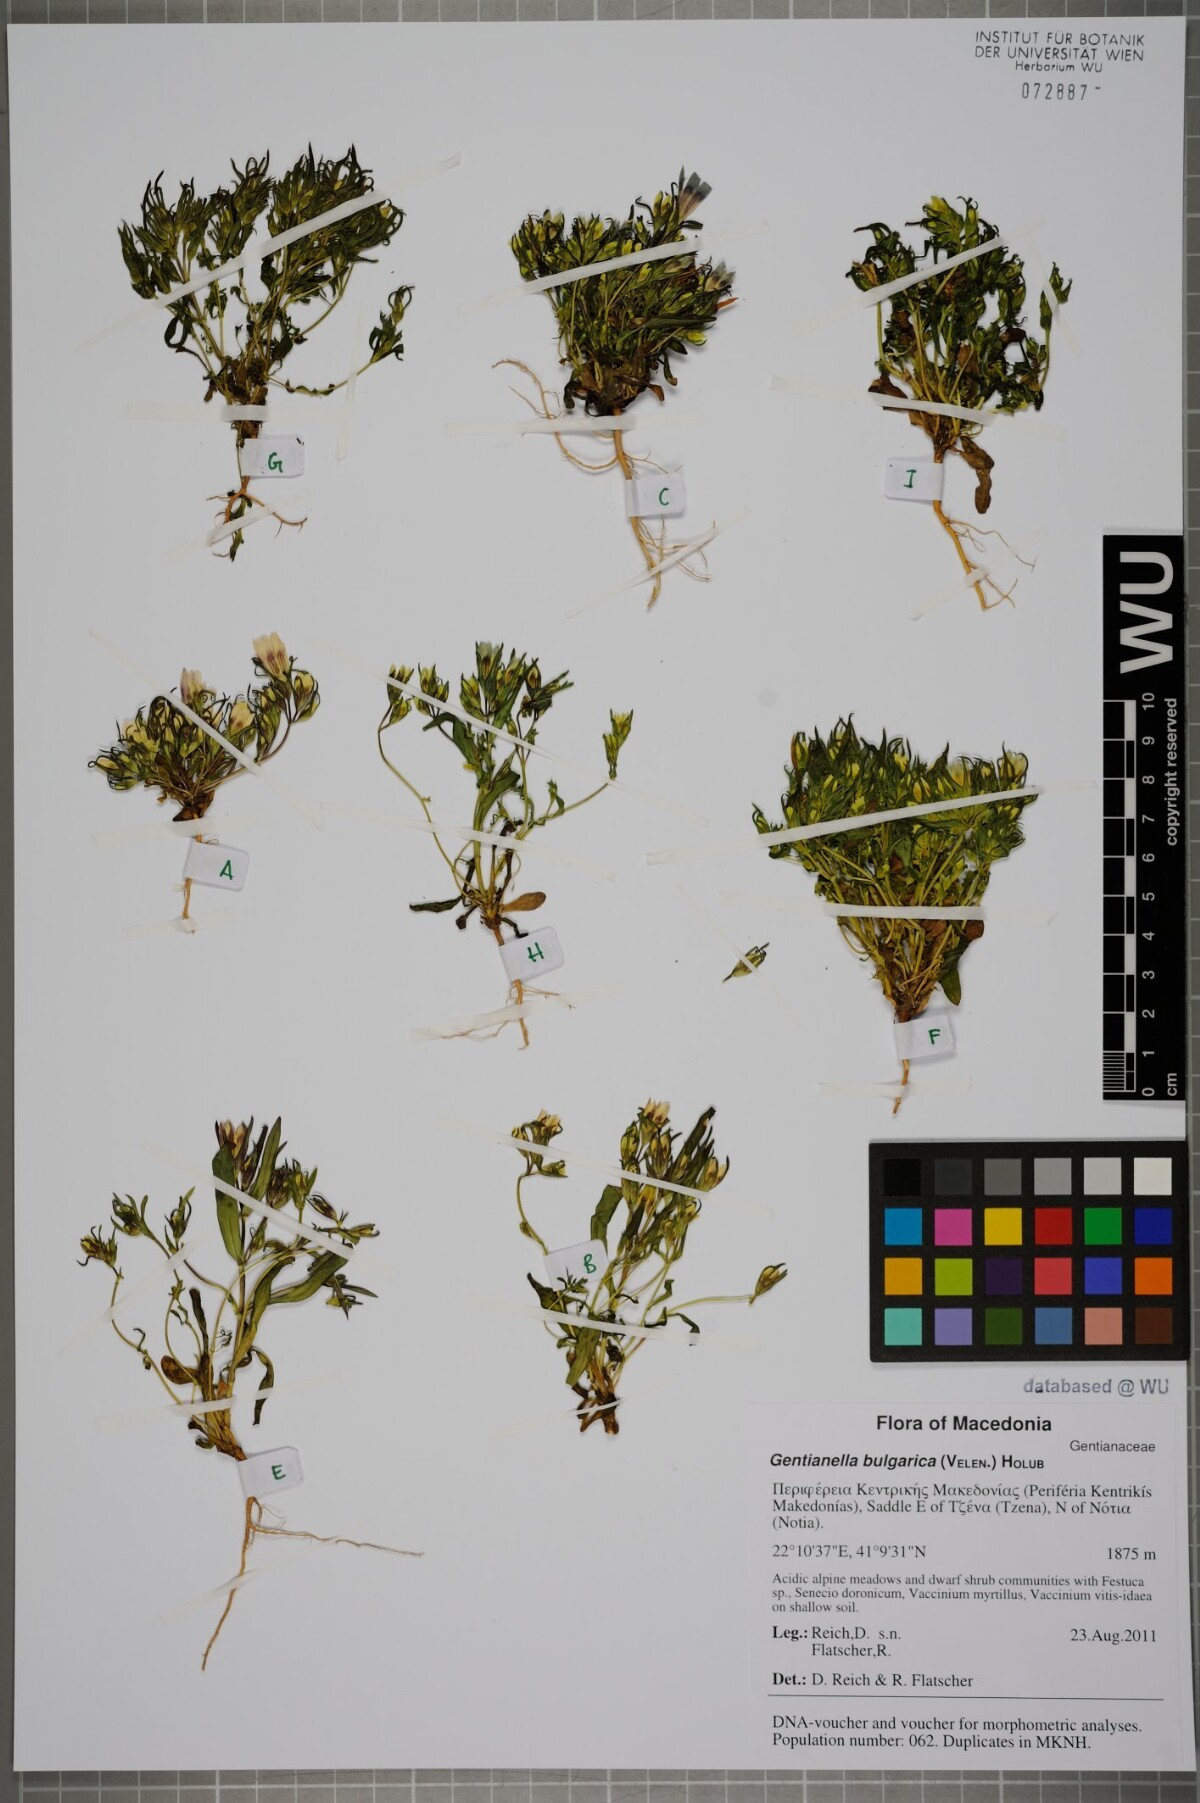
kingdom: Plantae
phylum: Tracheophyta
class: Magnoliopsida
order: Gentianales
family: Gentianaceae
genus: Gentianella
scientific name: Gentianella bulgarica
